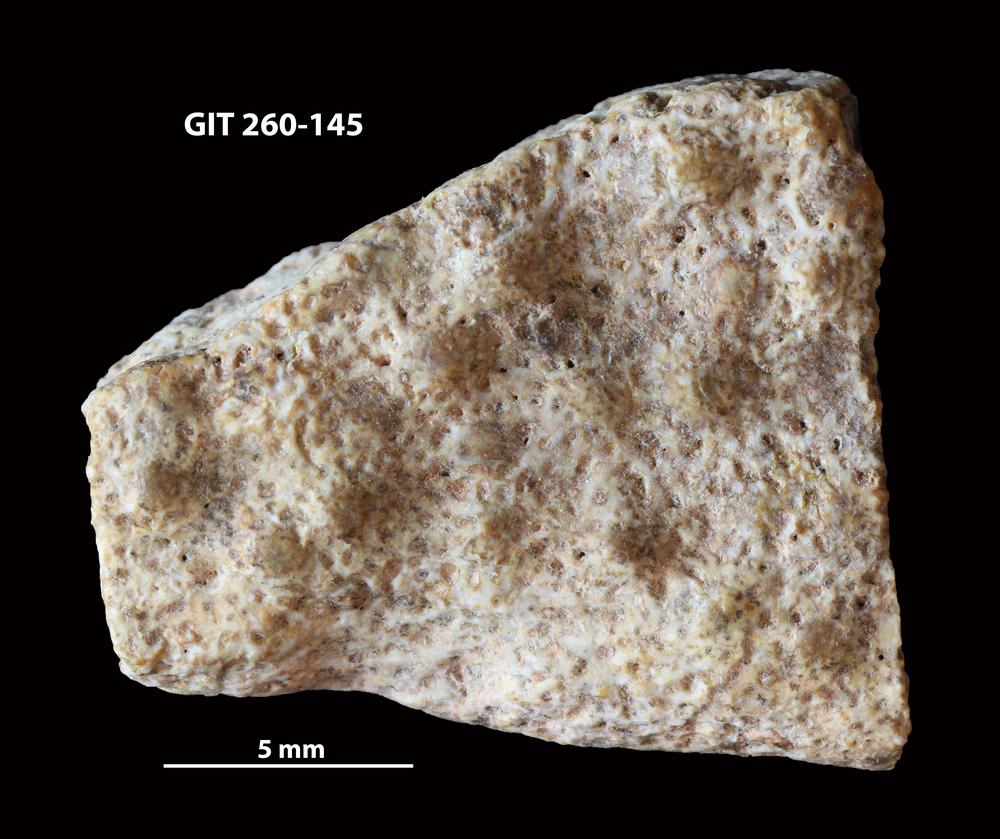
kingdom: Animalia
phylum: Chordata
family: Homostiidae
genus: Homostius
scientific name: Homostius
